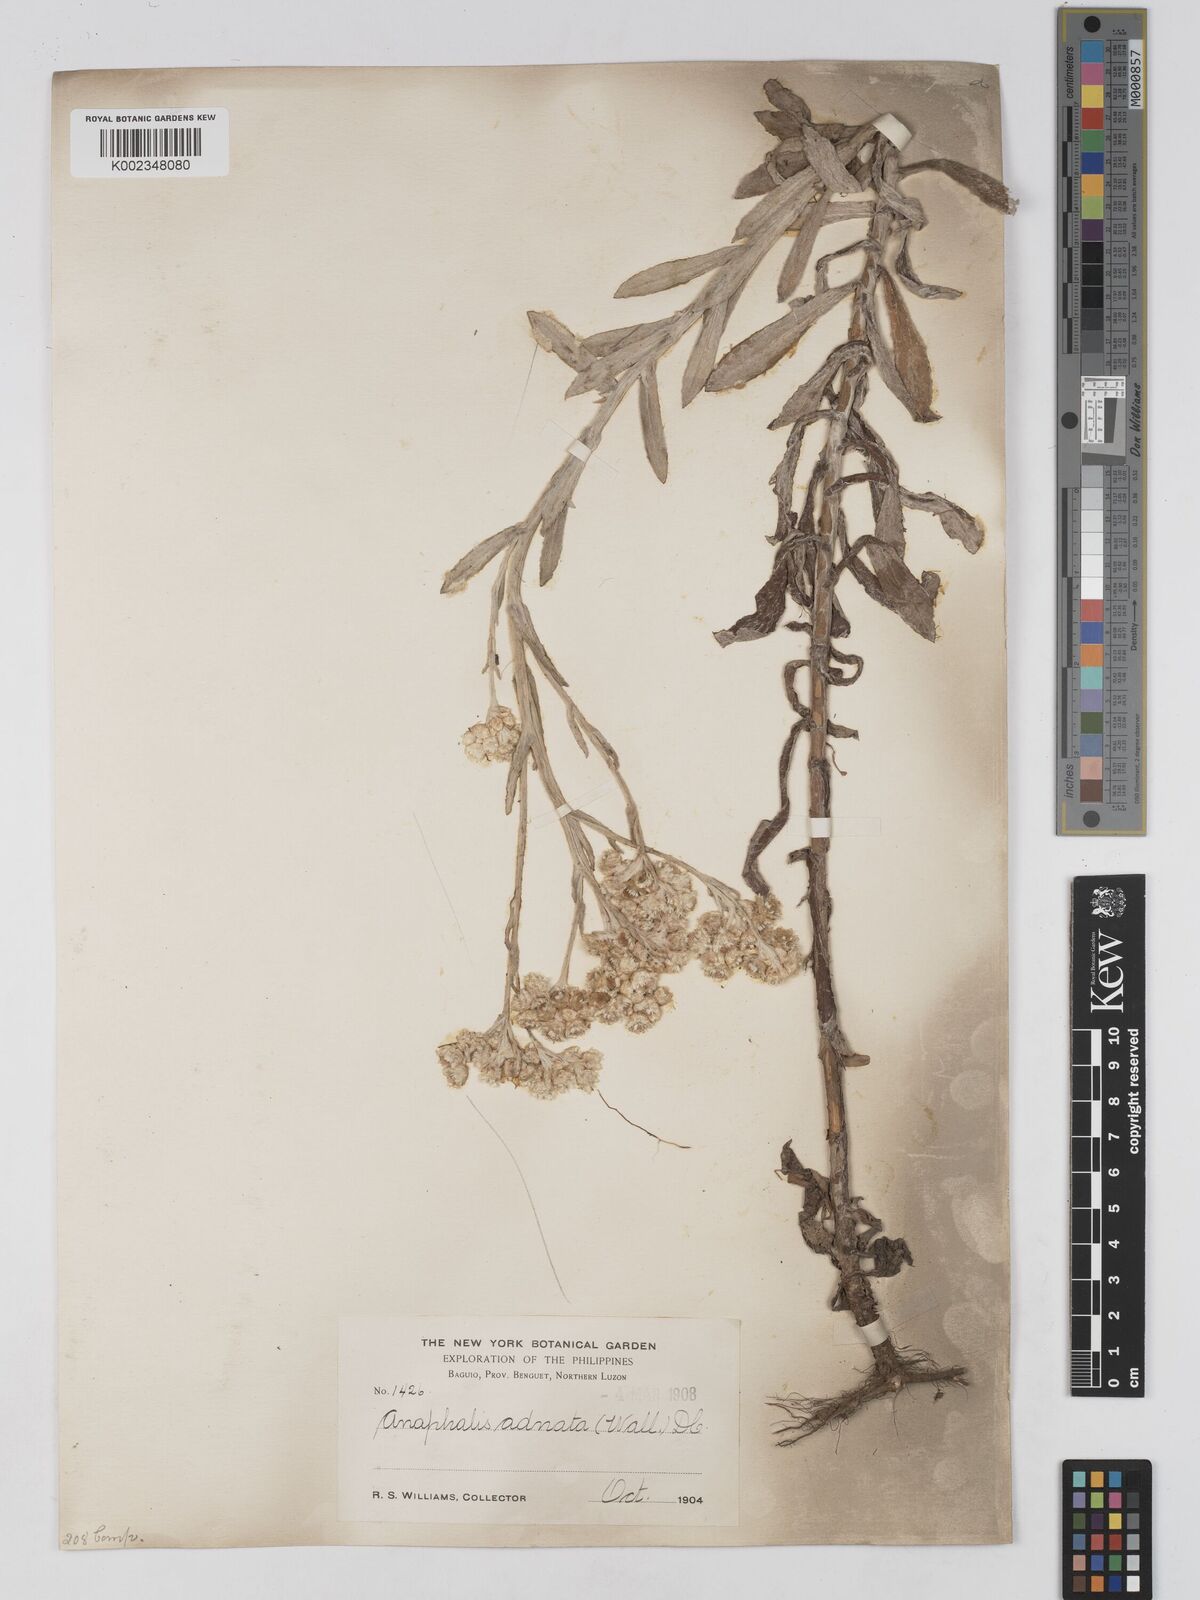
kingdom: Plantae
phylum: Tracheophyta
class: Magnoliopsida
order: Asterales
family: Asteraceae
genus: Pseudognaphalium
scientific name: Pseudognaphalium adnatum
